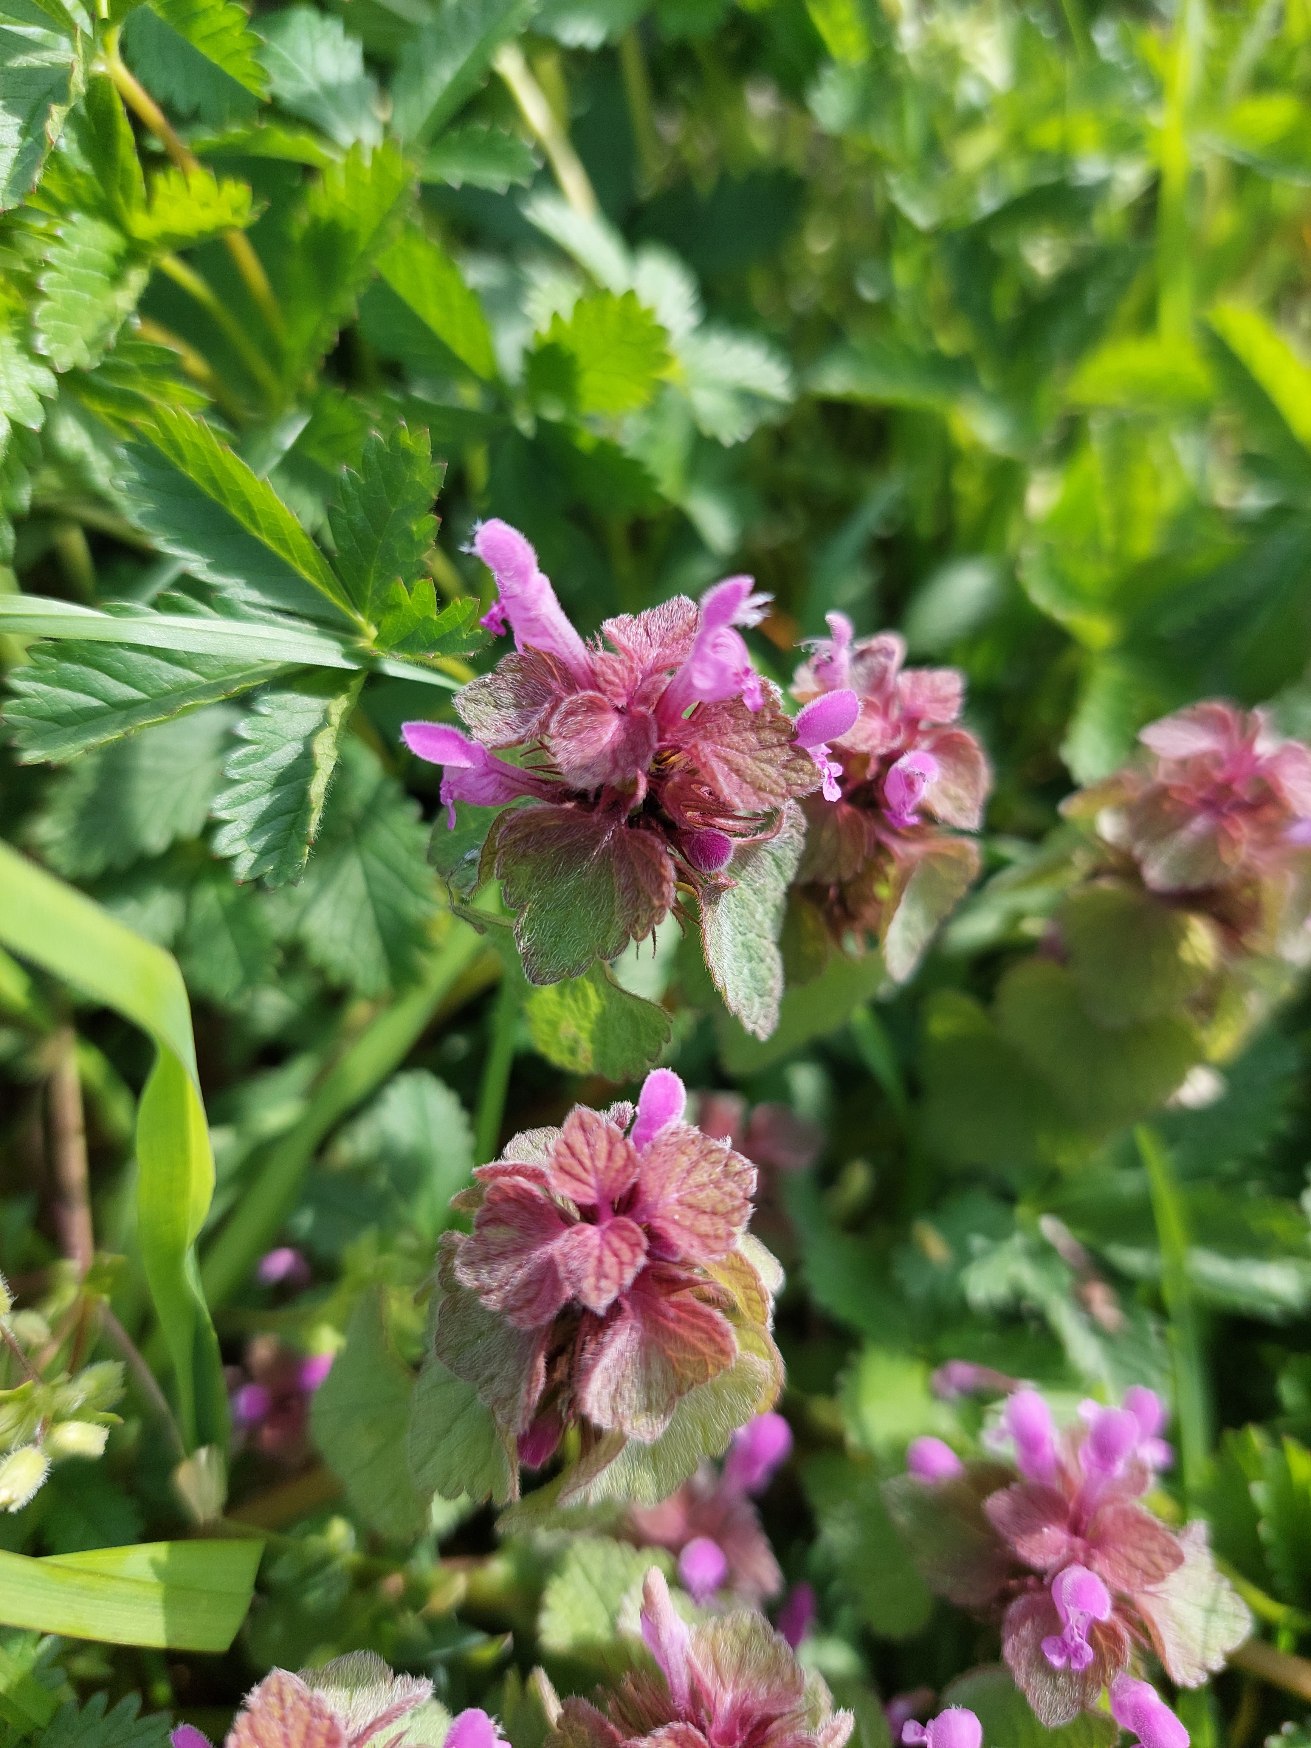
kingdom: Plantae
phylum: Tracheophyta
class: Magnoliopsida
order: Lamiales
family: Lamiaceae
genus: Lamium
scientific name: Lamium purpureum
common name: Rød tvetand
